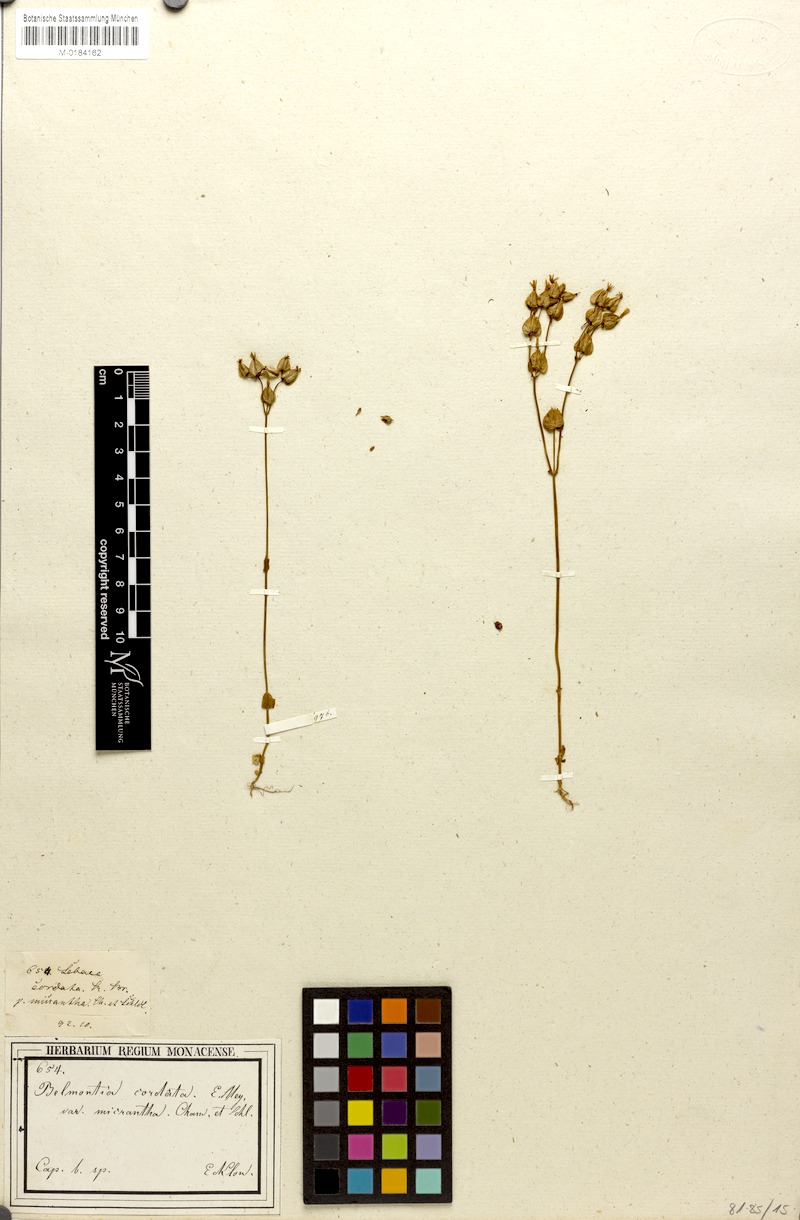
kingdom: Plantae
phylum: Tracheophyta
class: Magnoliopsida
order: Gentianales
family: Gentianaceae
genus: Sebaea
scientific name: Sebaea exacoides
